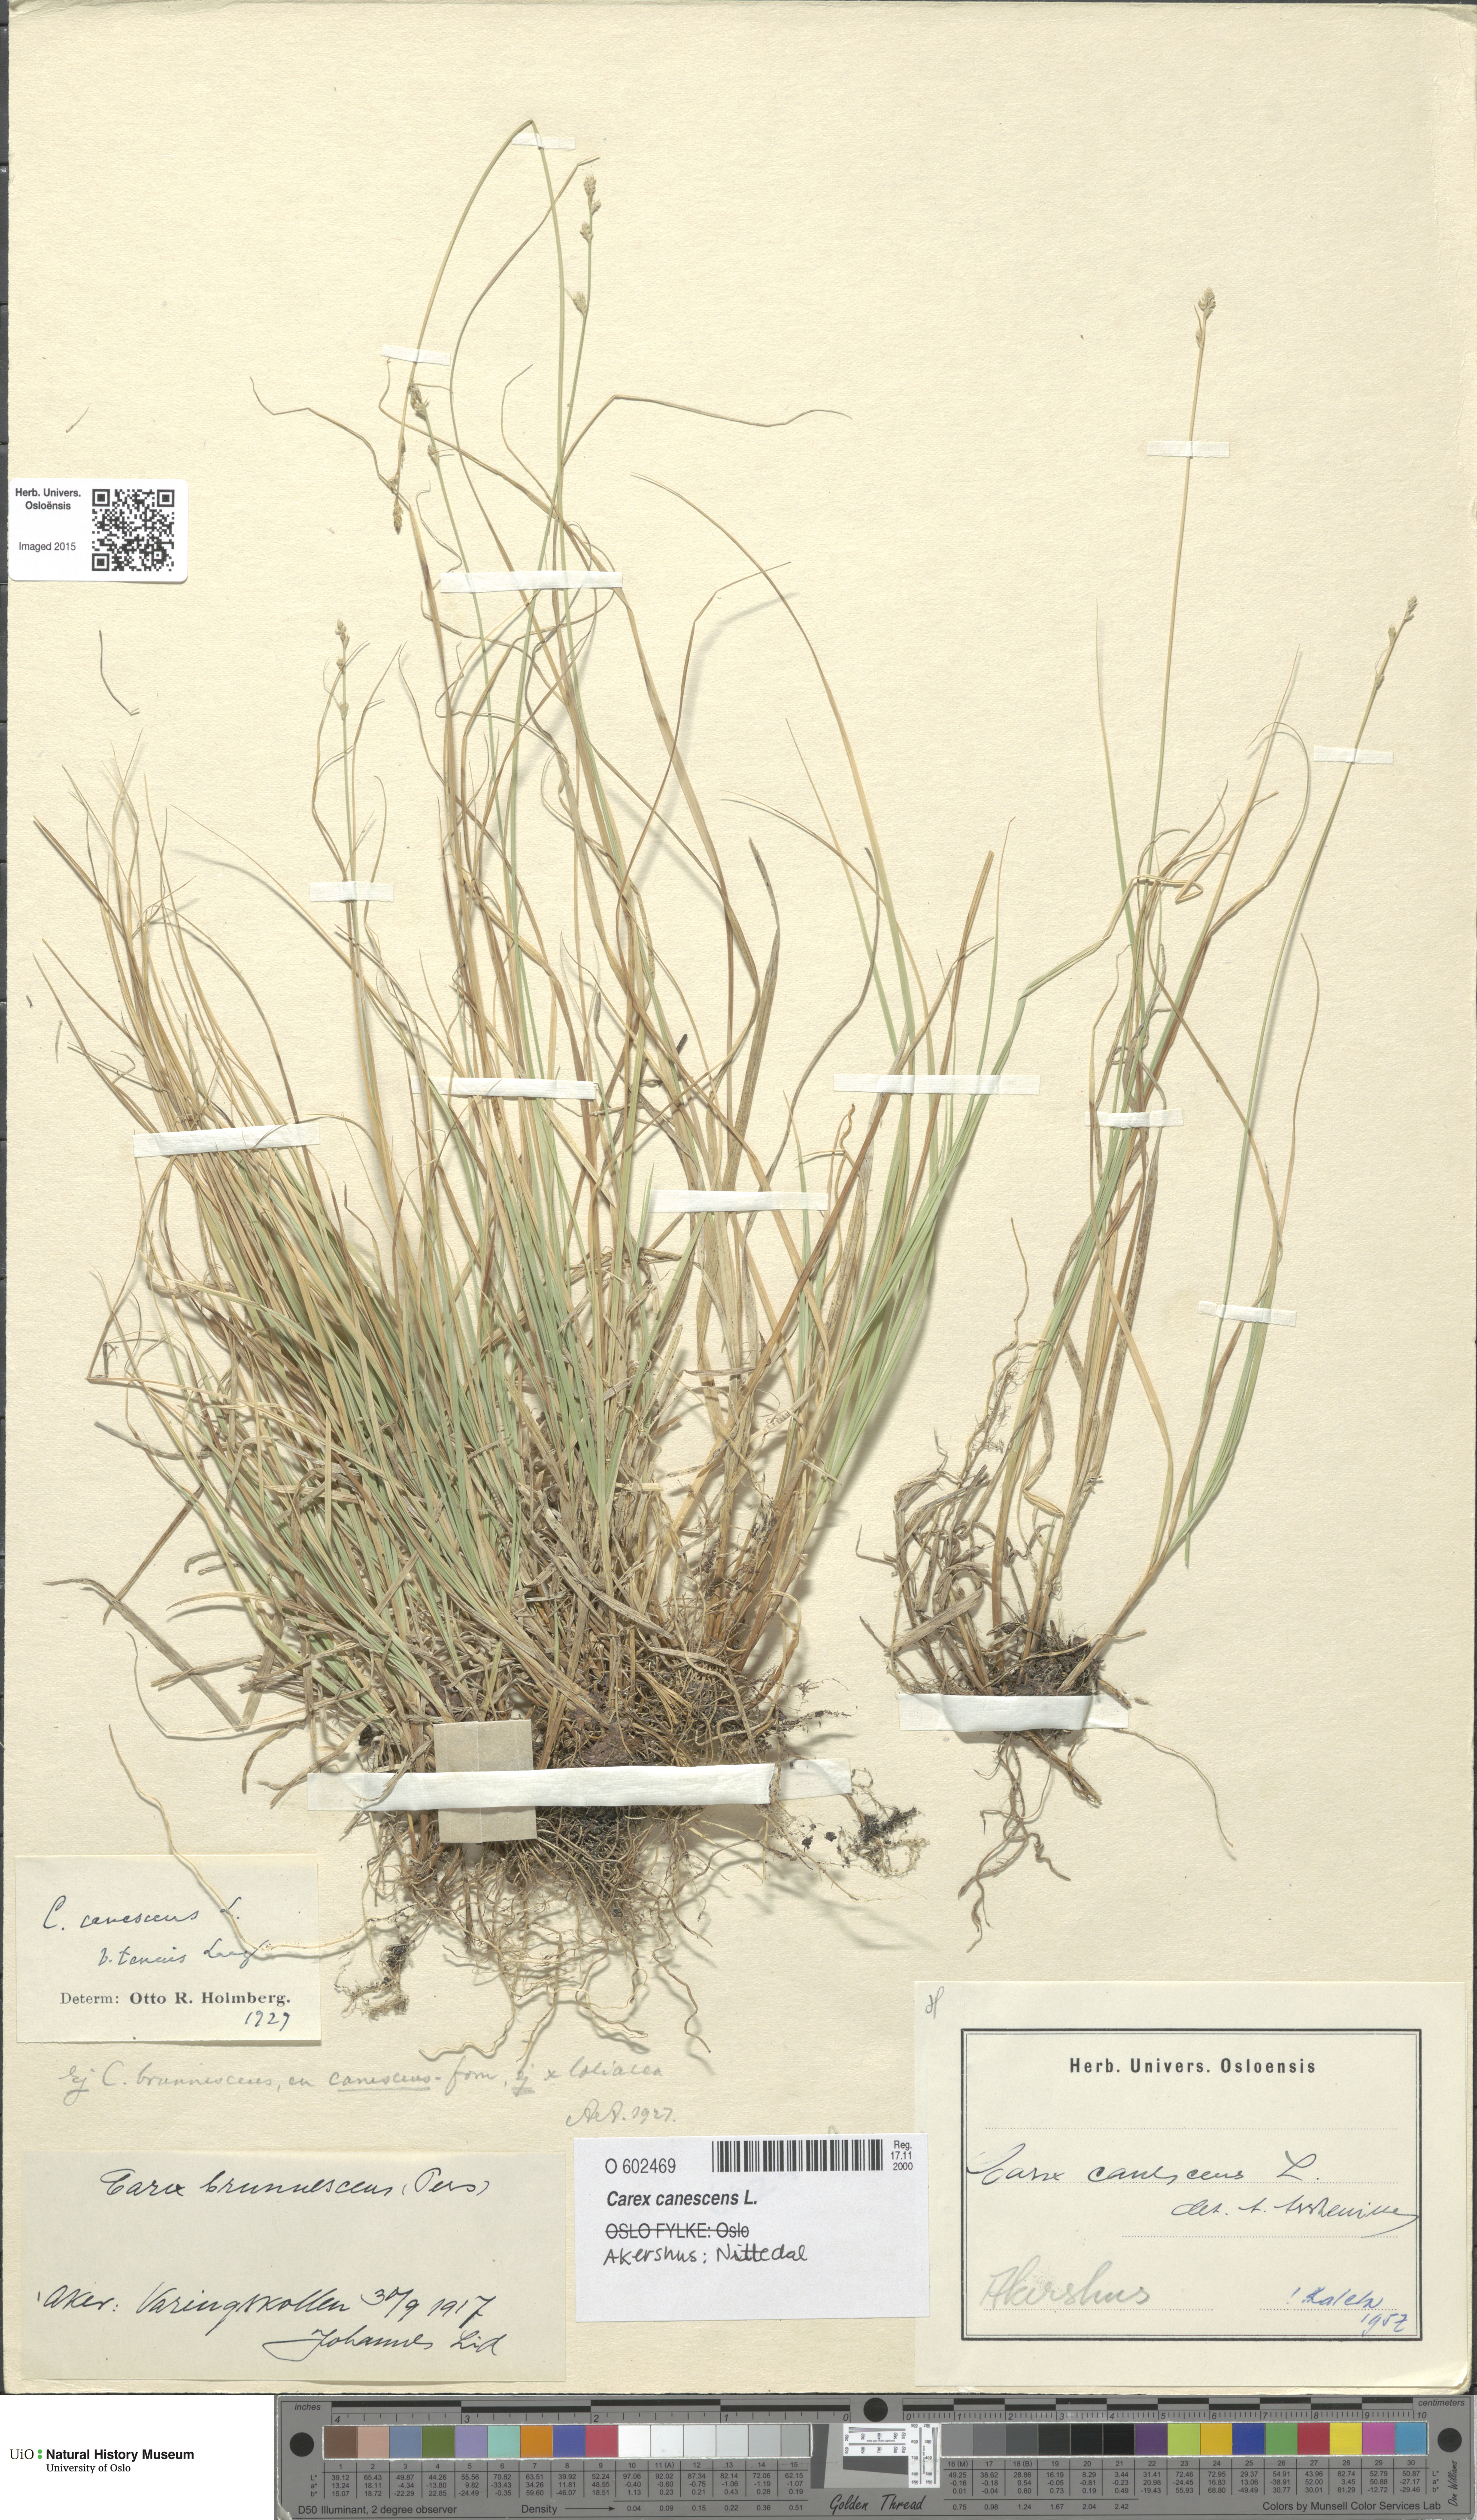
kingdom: Plantae
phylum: Tracheophyta
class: Liliopsida
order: Poales
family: Cyperaceae
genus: Carex
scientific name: Carex canescens
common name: White sedge
